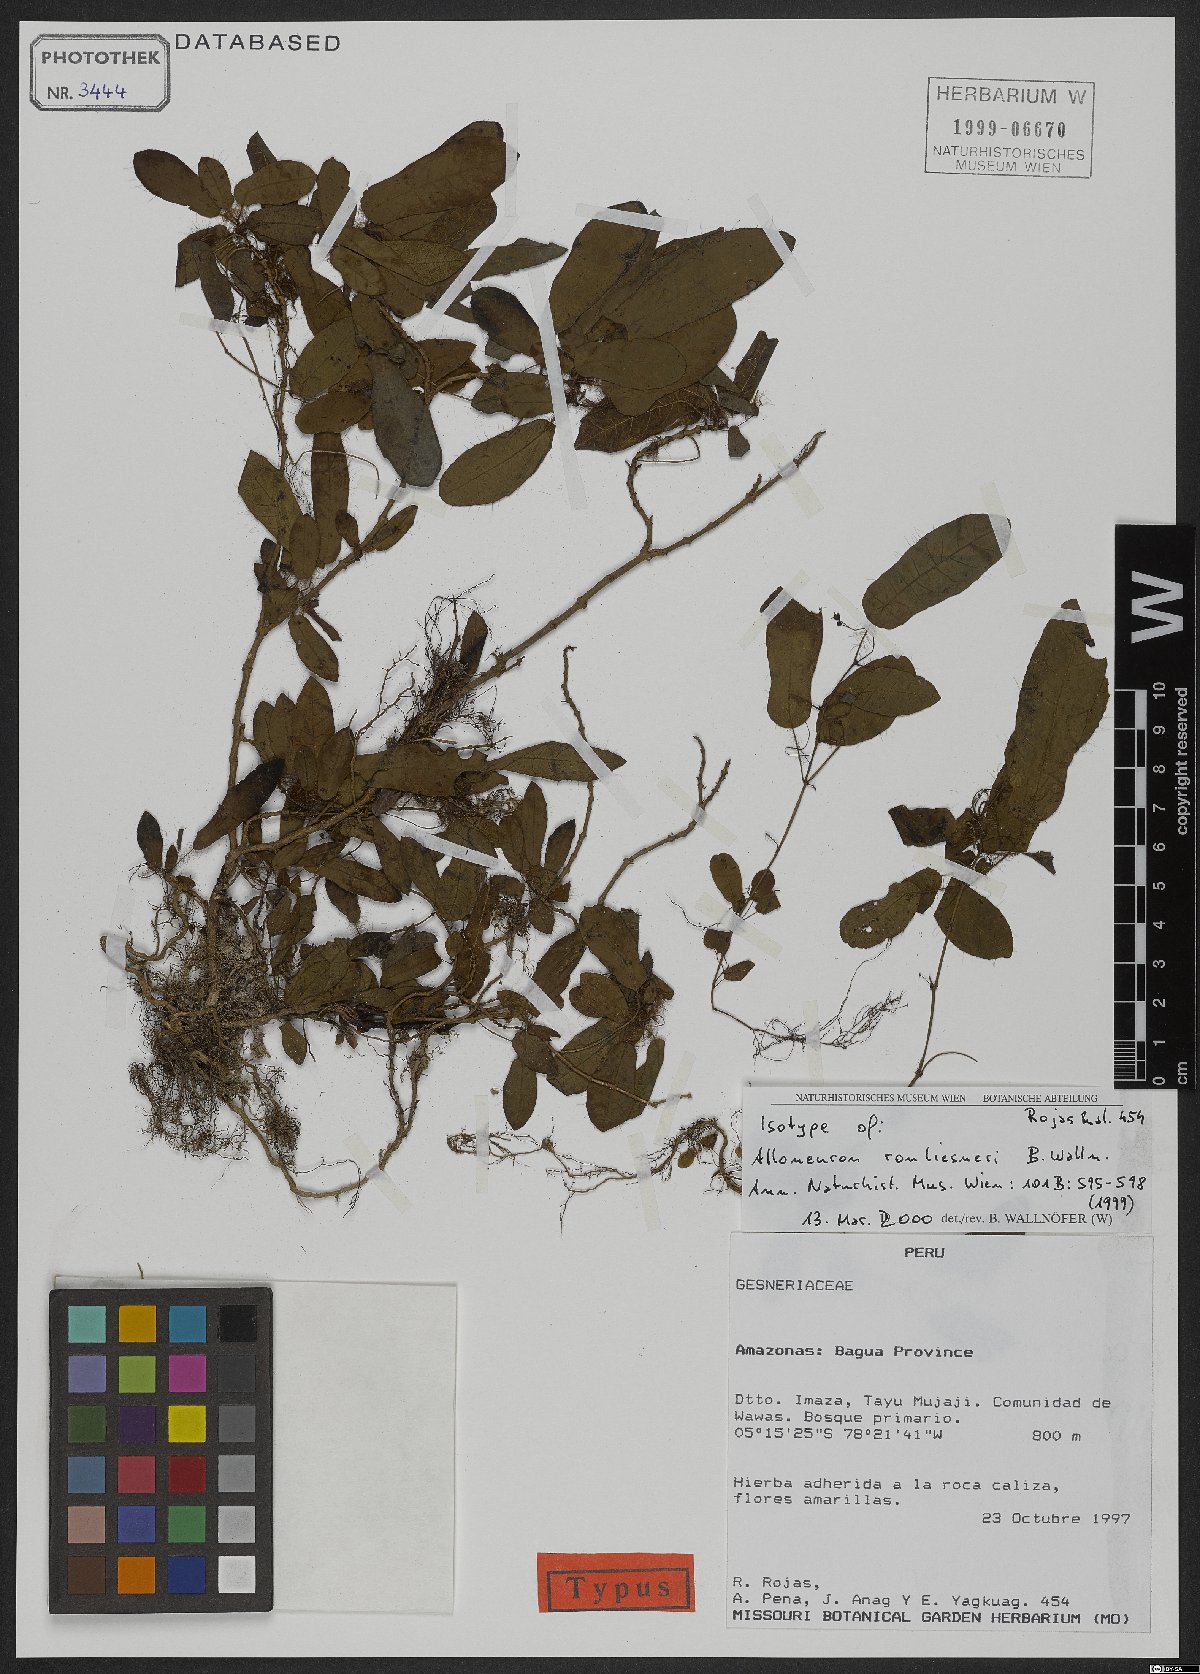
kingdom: Plantae
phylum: Tracheophyta
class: Magnoliopsida
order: Myrtales
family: Melastomataceae
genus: Alloneuron
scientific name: Alloneuron ronliesneri
